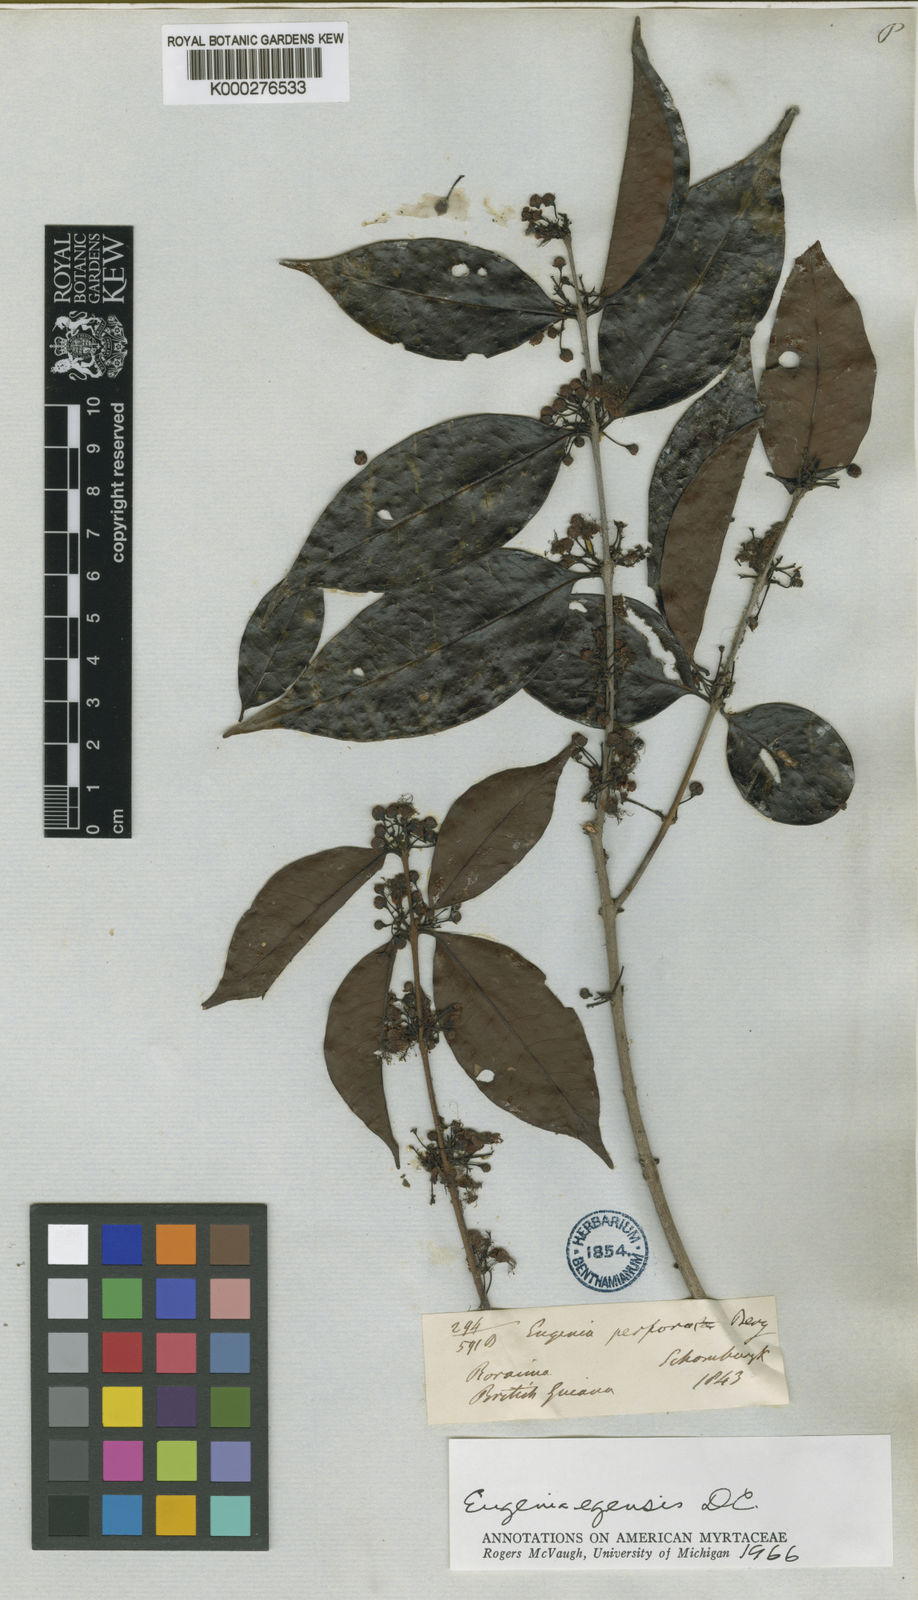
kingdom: Plantae
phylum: Tracheophyta
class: Magnoliopsida
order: Myrtales
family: Myrtaceae
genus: Eugenia
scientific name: Eugenia egensis
